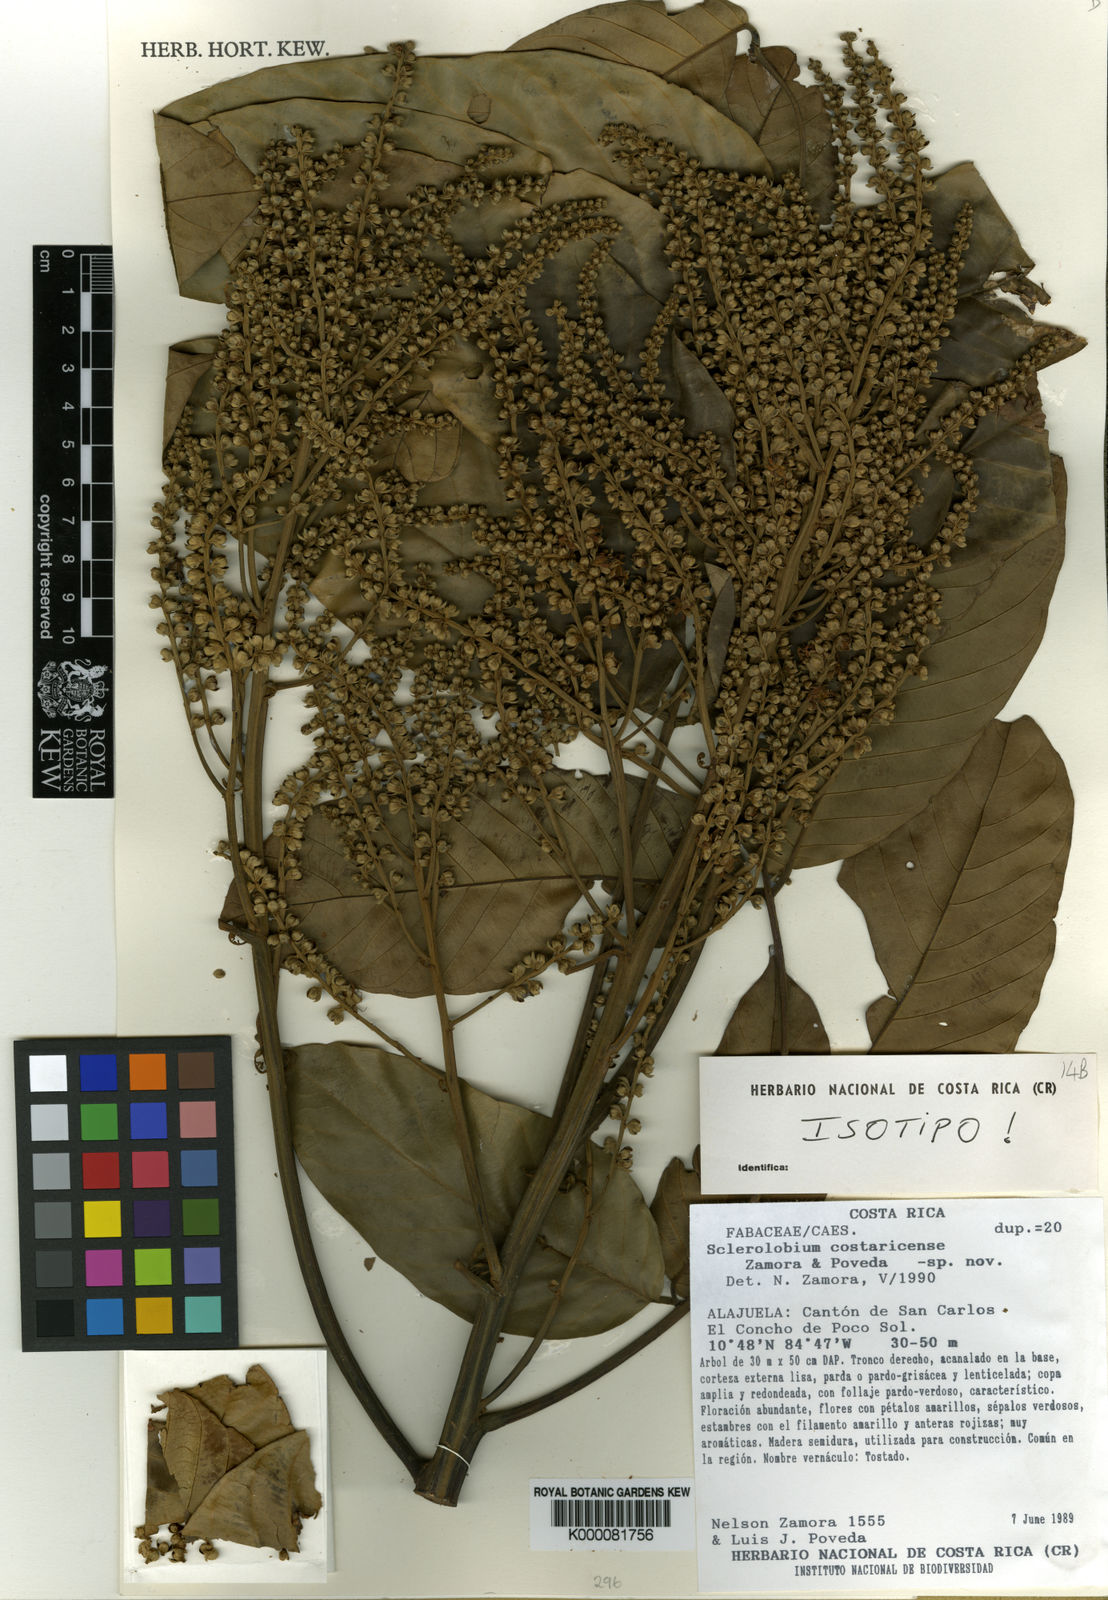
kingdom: Plantae
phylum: Tracheophyta
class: Magnoliopsida
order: Fabales
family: Fabaceae
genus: Tachigali
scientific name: Tachigali
